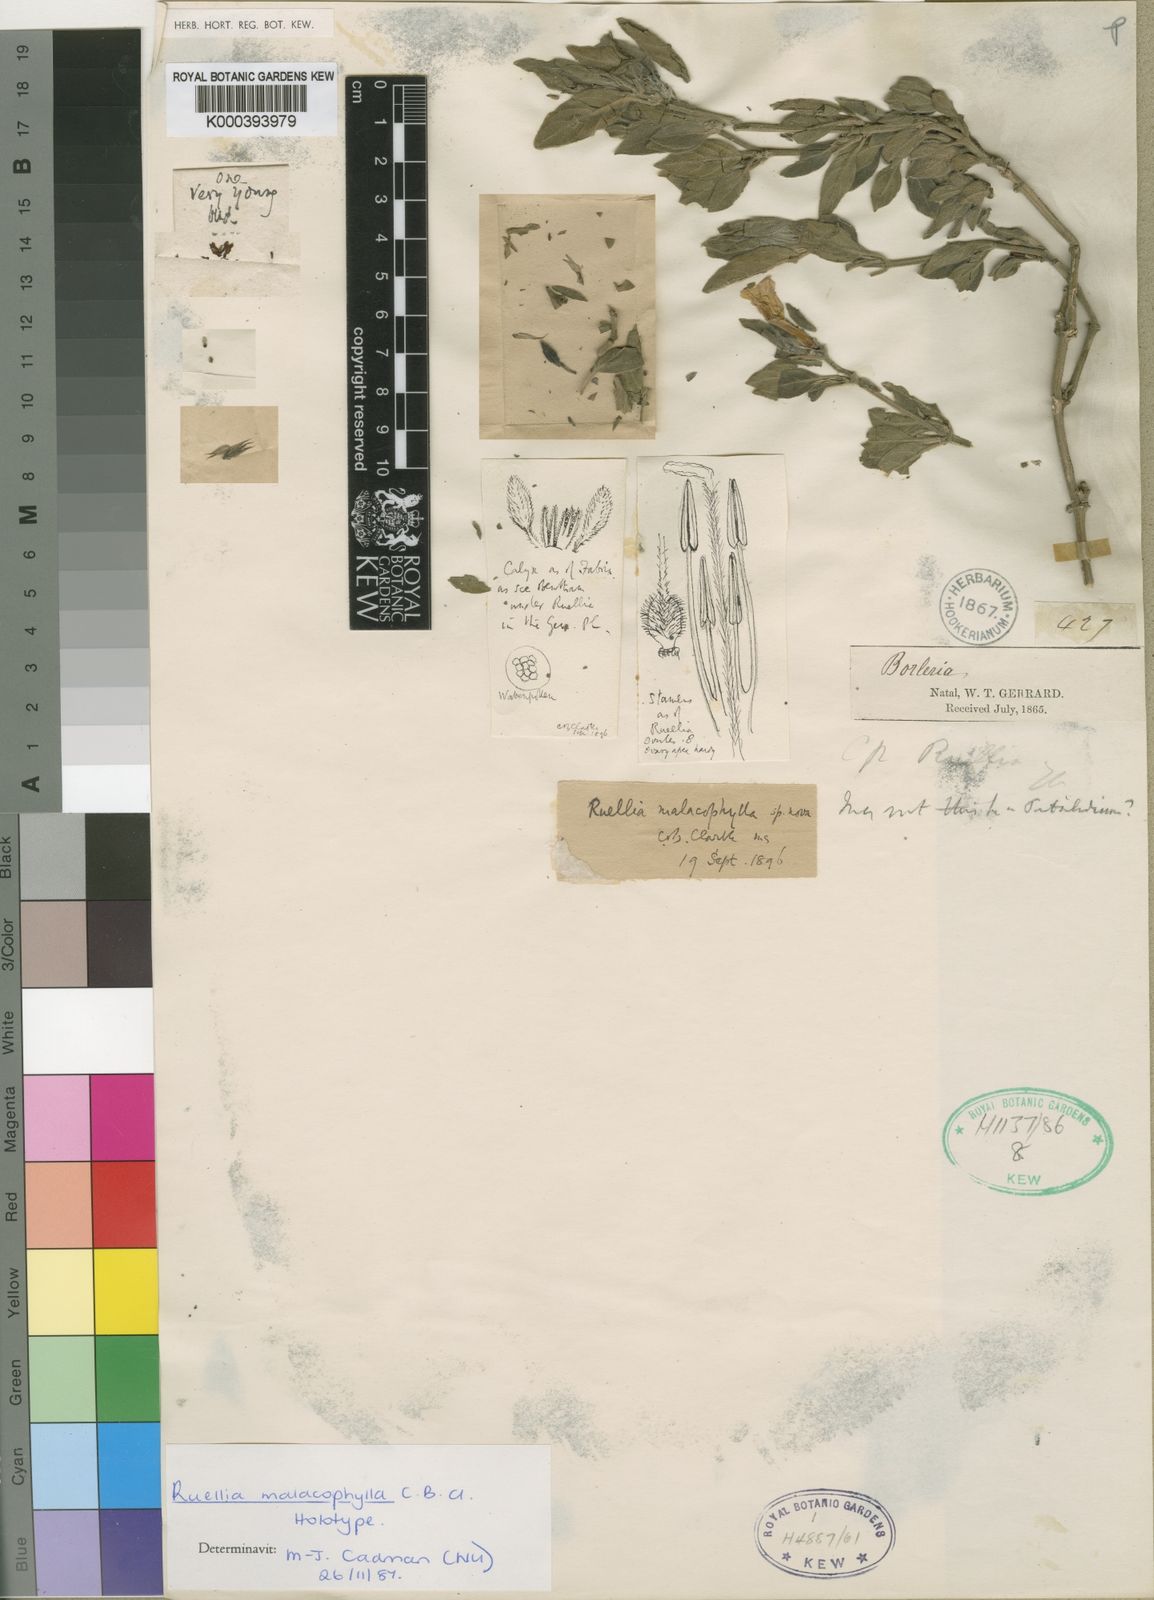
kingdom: Plantae
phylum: Tracheophyta
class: Magnoliopsida
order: Lamiales
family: Acanthaceae
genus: Crabbea
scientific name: Crabbea velutina
